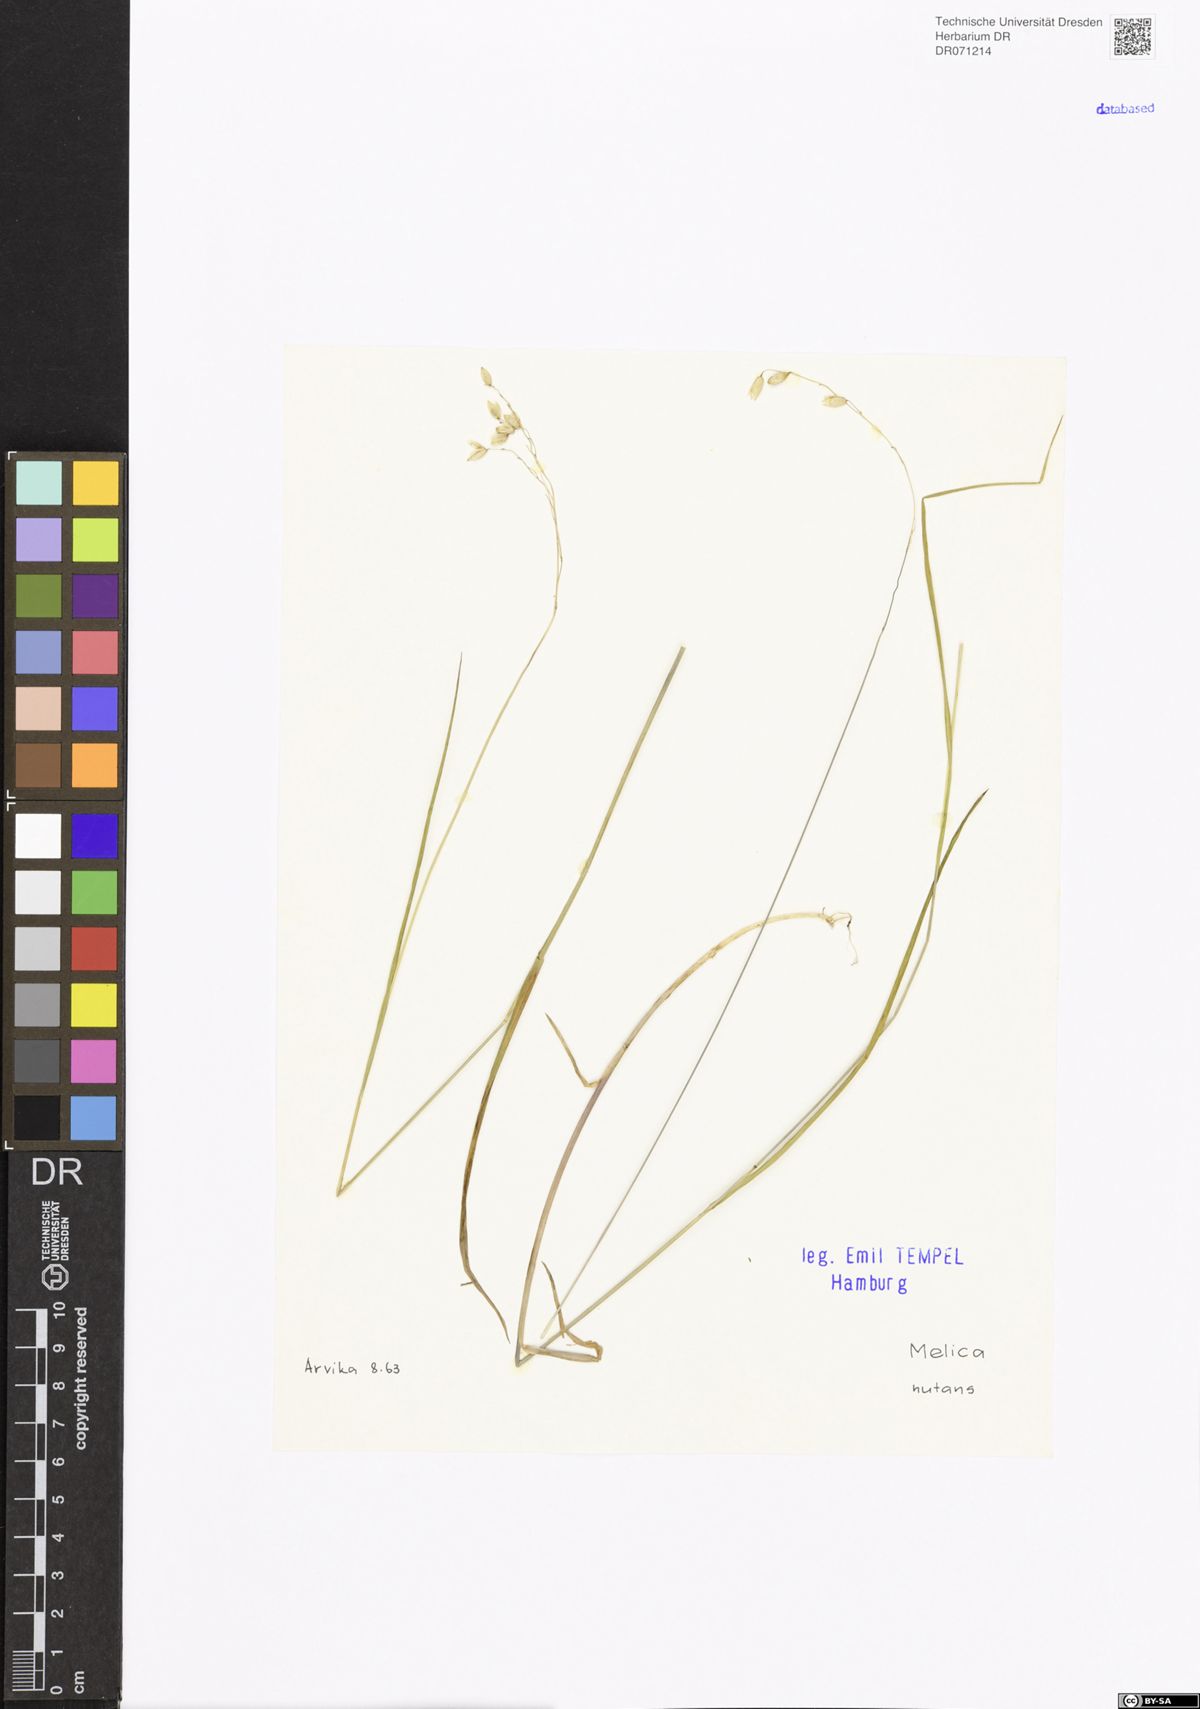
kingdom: Plantae
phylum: Tracheophyta
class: Liliopsida
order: Poales
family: Poaceae
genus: Melica
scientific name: Melica nutans
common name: Mountain melick
